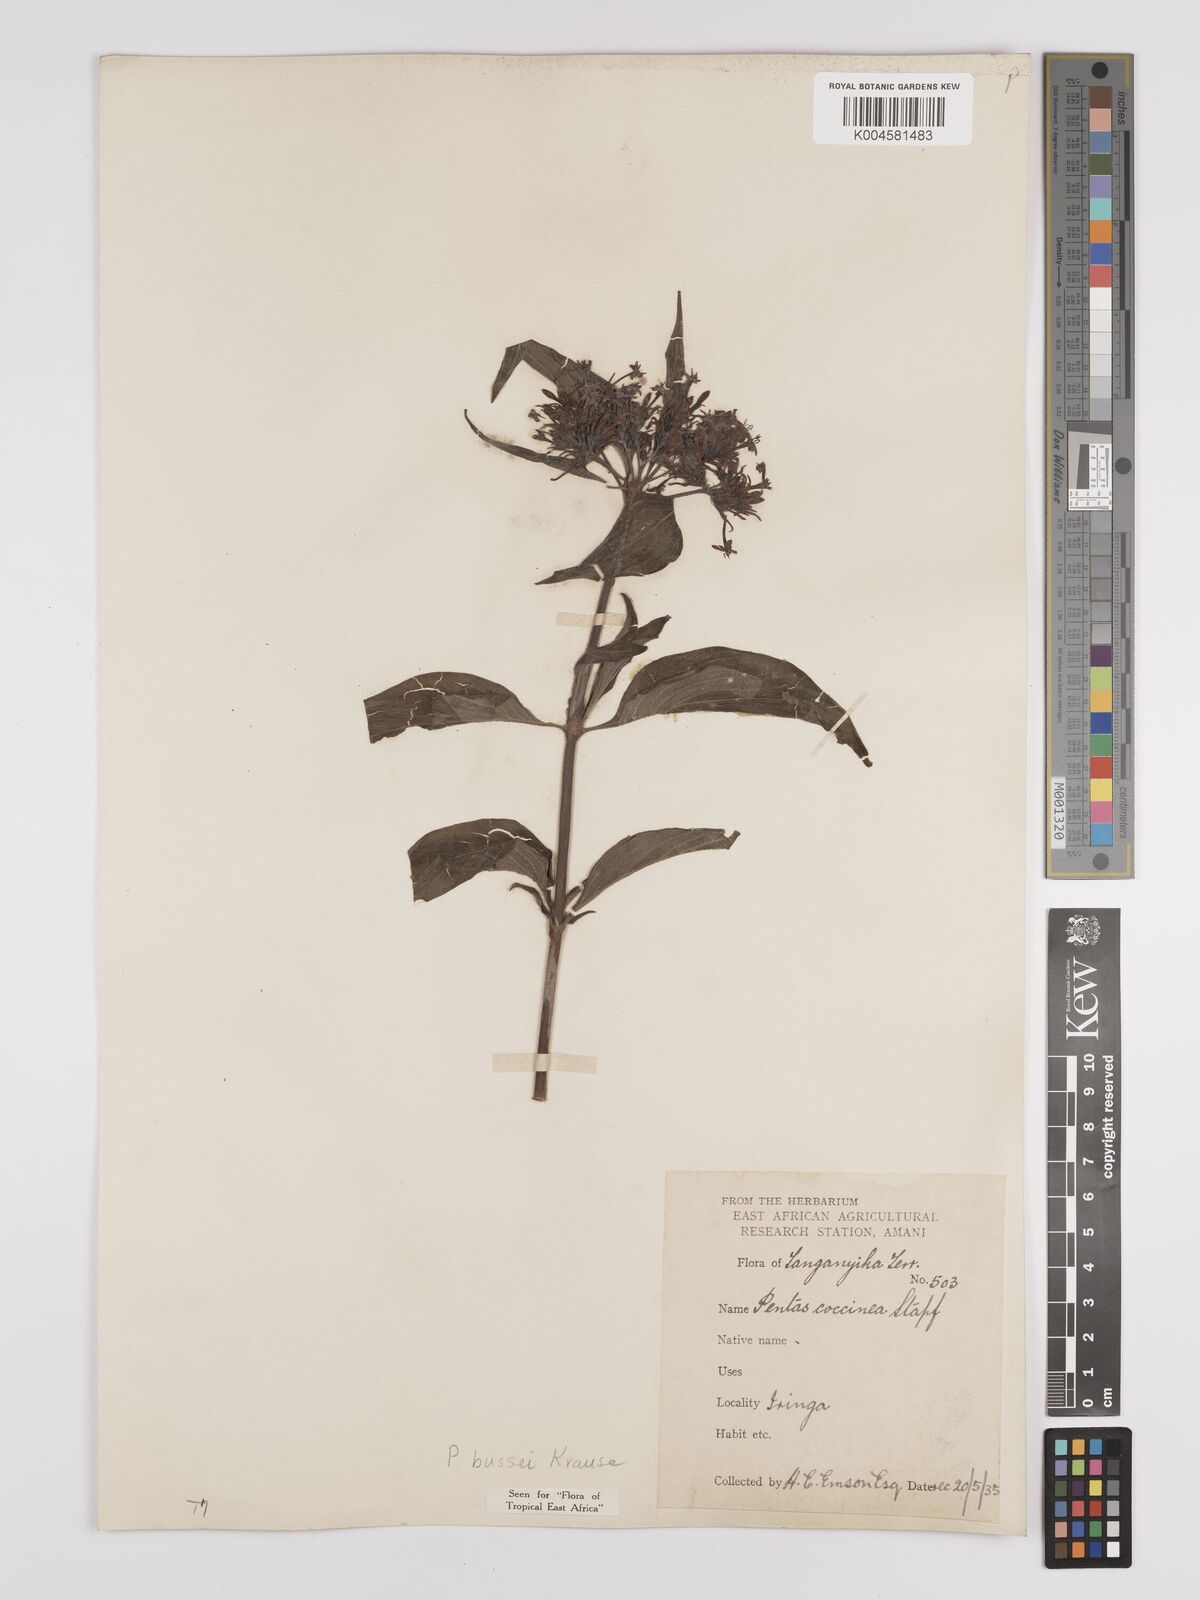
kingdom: Plantae
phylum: Tracheophyta
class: Magnoliopsida
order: Gentianales
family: Rubiaceae
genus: Rhodopentas
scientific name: Rhodopentas bussei
